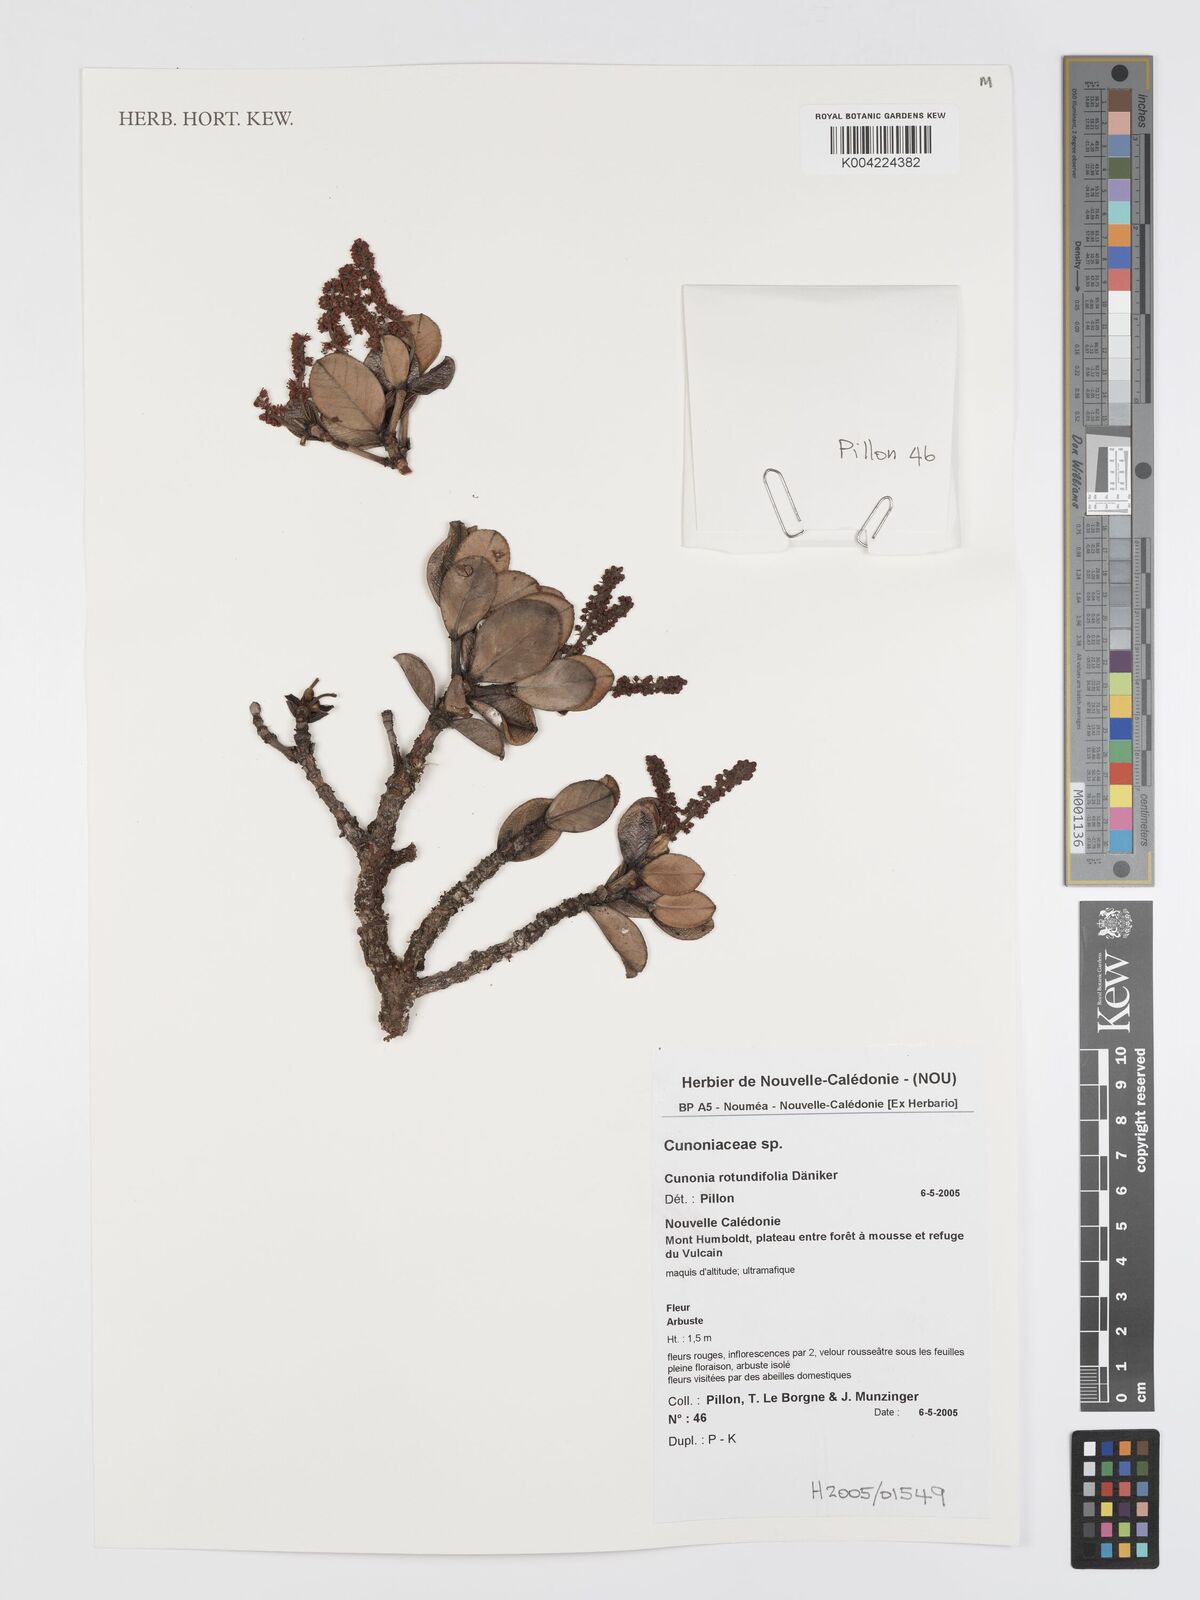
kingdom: Plantae
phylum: Tracheophyta
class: Magnoliopsida
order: Oxalidales
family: Cunoniaceae
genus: Cunonia
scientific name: Cunonia rotundifolia
